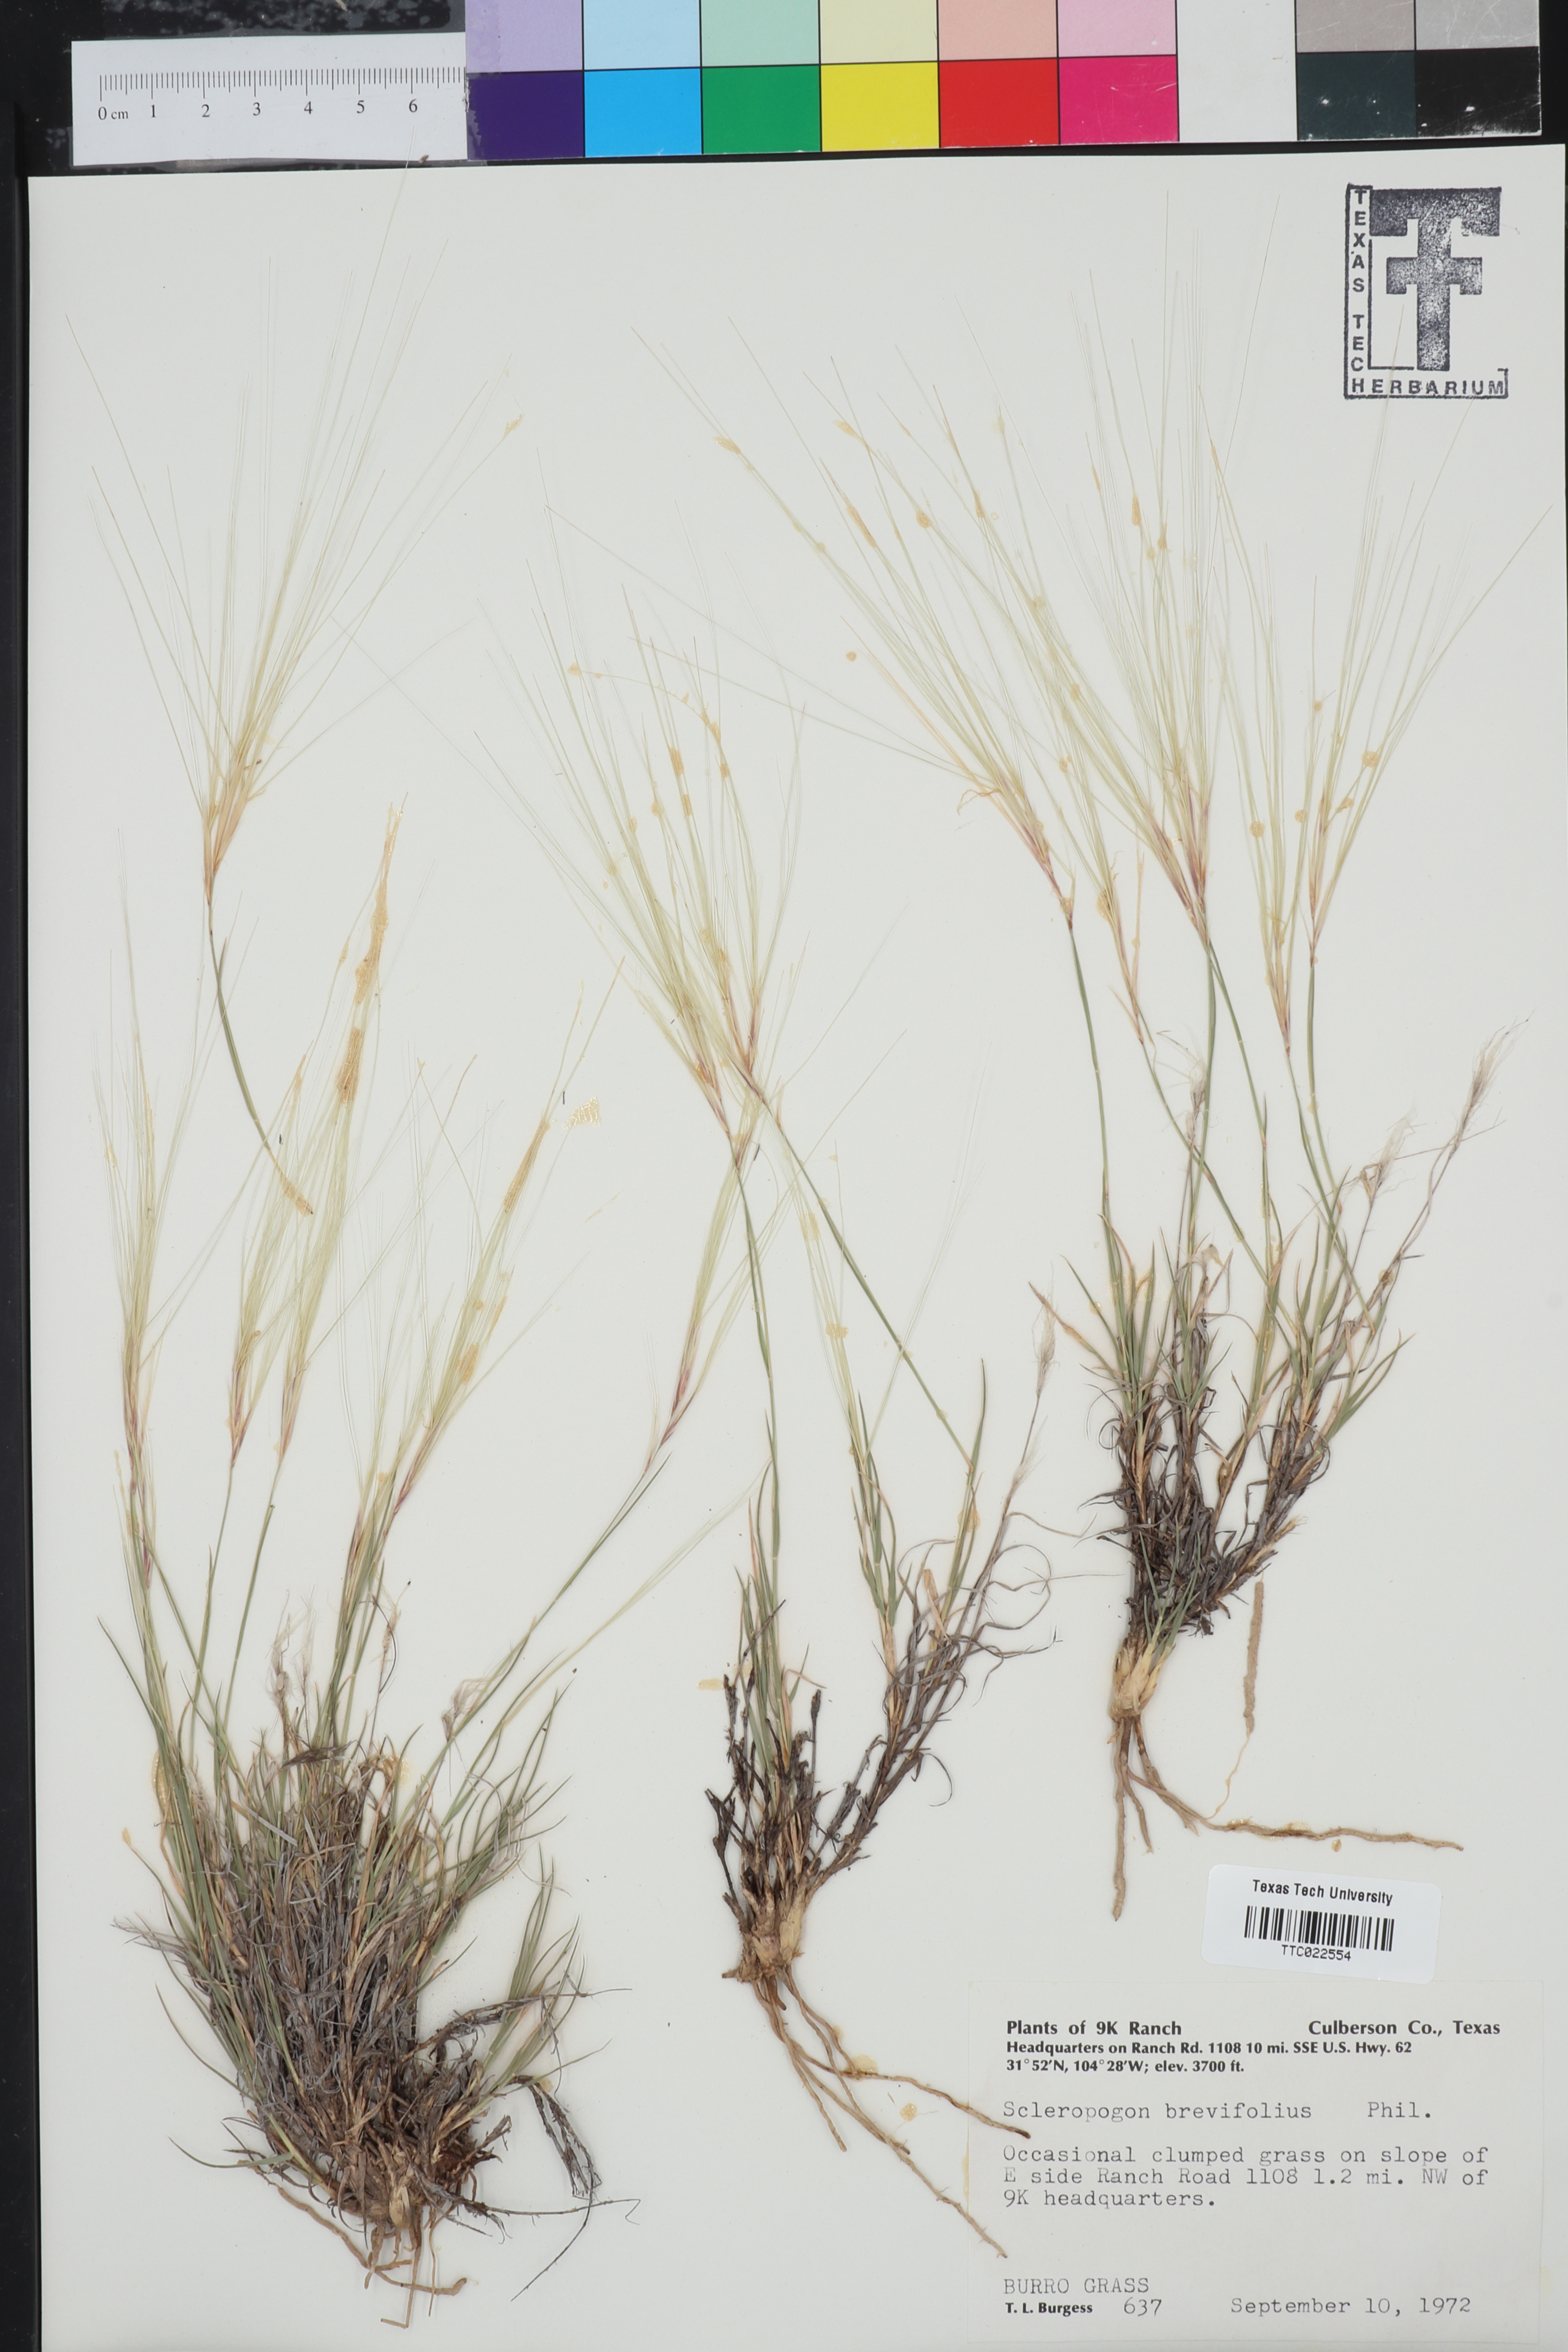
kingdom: Plantae
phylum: Tracheophyta
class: Liliopsida
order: Poales
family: Poaceae
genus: Scleropogon
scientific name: Scleropogon brevifolius
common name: Burro grass
